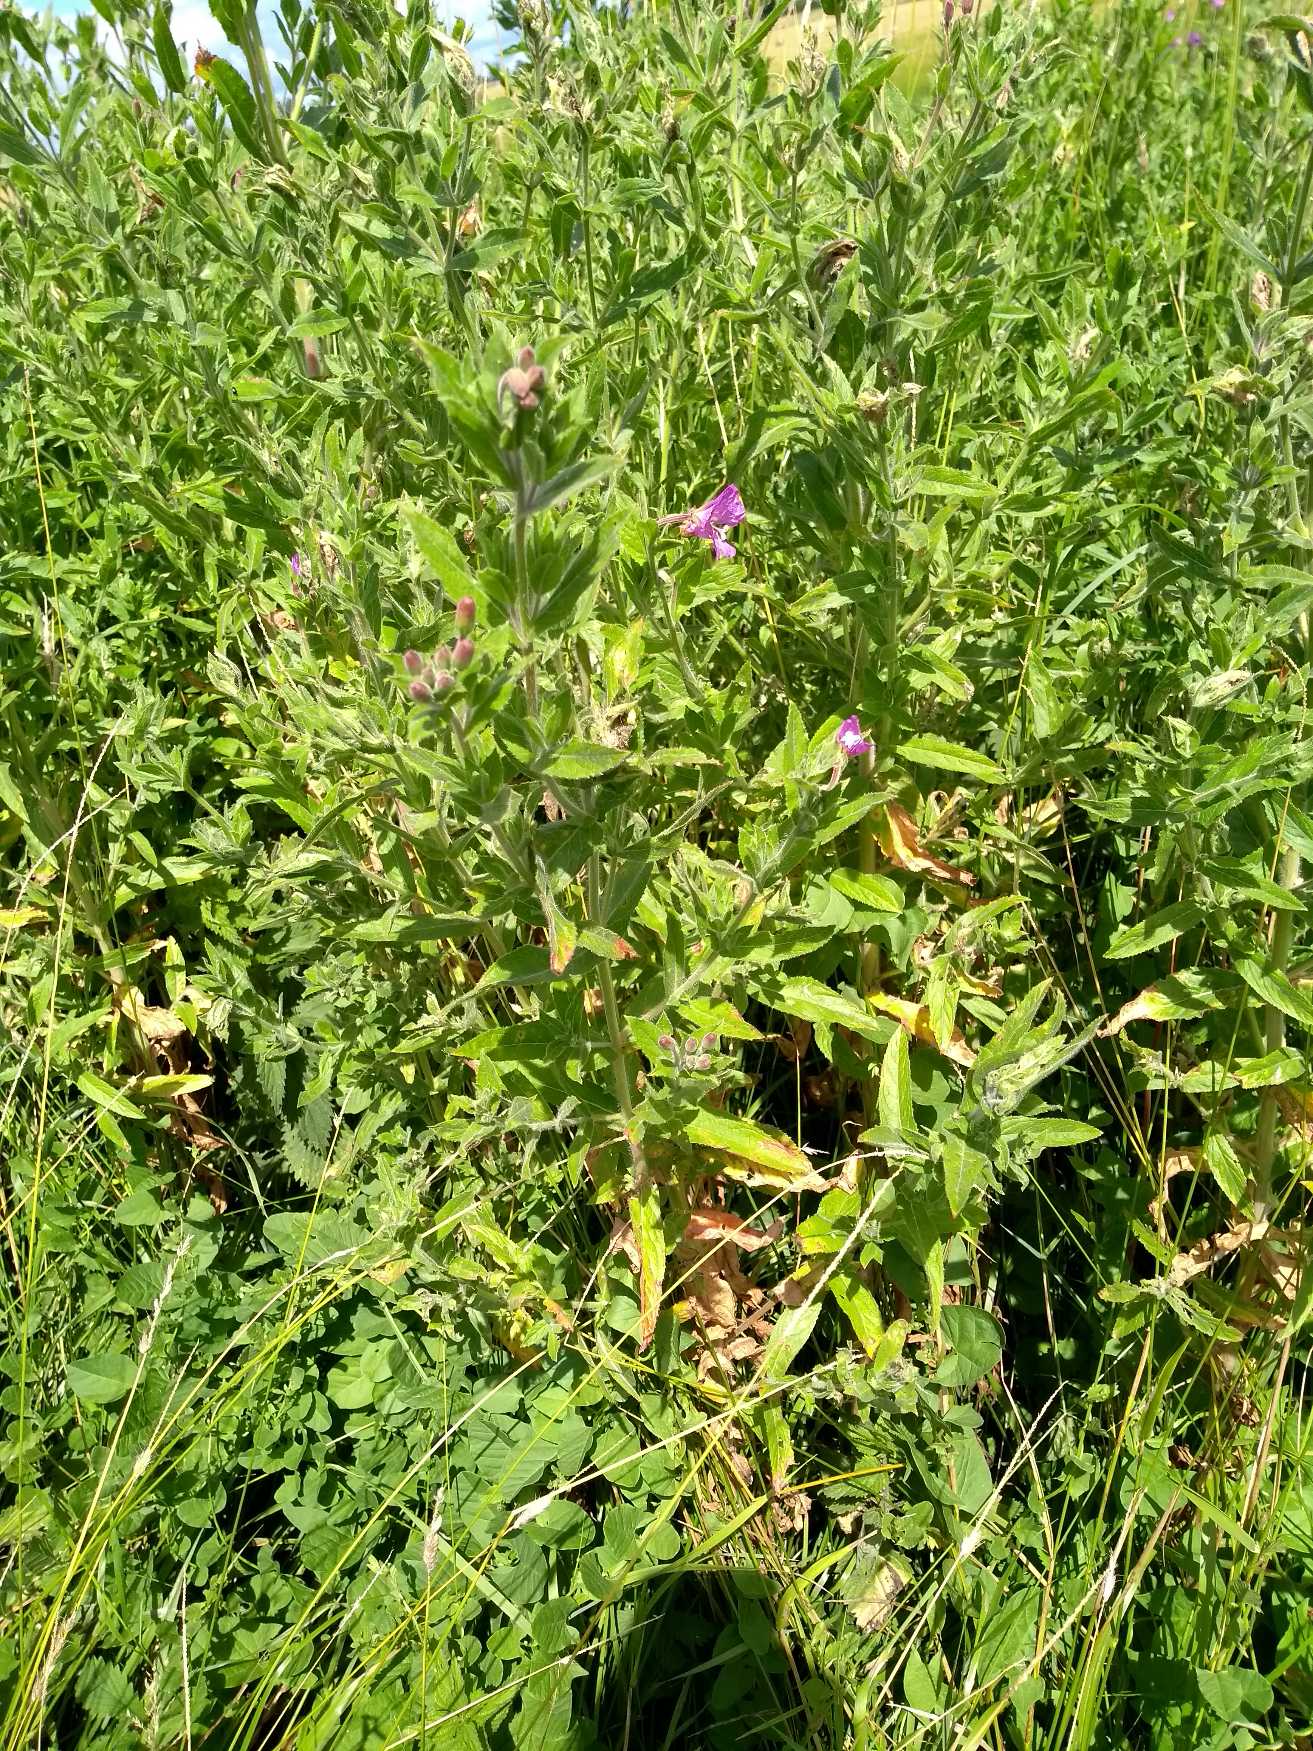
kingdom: Plantae
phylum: Tracheophyta
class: Magnoliopsida
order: Myrtales
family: Onagraceae
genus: Epilobium
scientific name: Epilobium hirsutum
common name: Lådden dueurt
